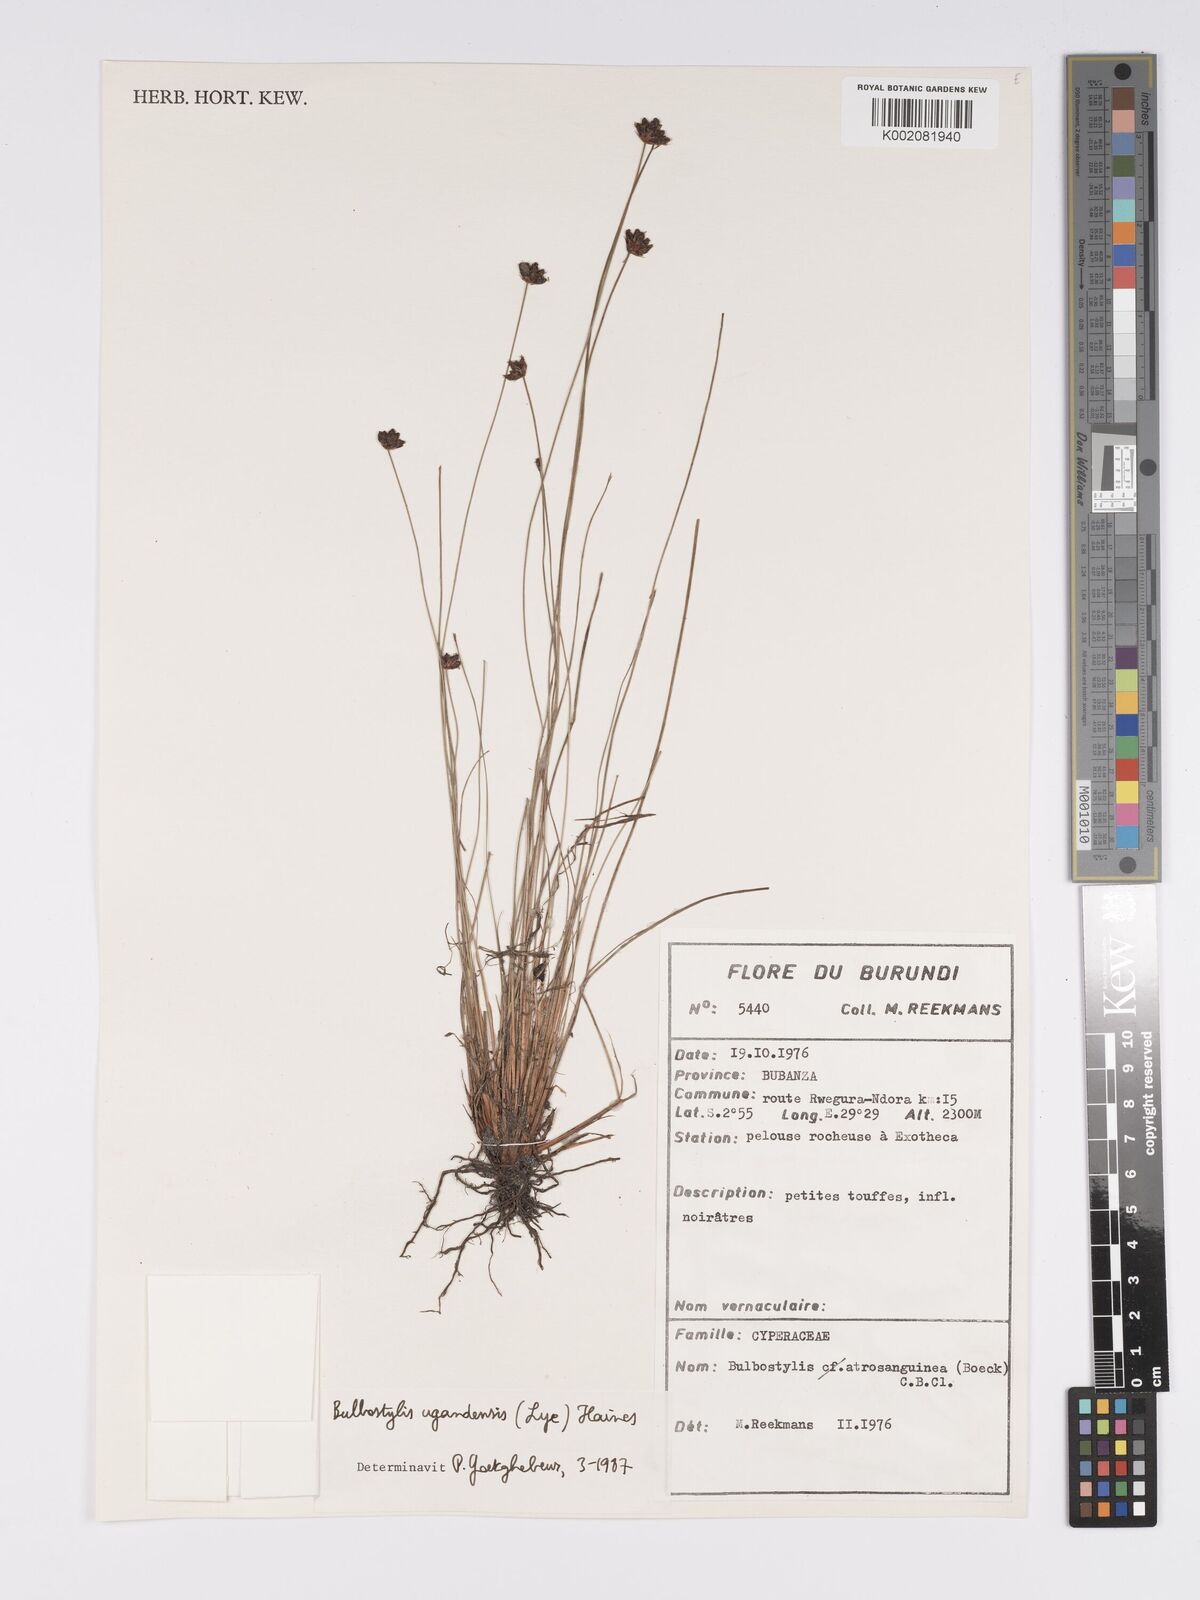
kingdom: Plantae
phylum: Tracheophyta
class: Liliopsida
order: Poales
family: Cyperaceae
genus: Bulbostylis
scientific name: Bulbostylis ugandensis
